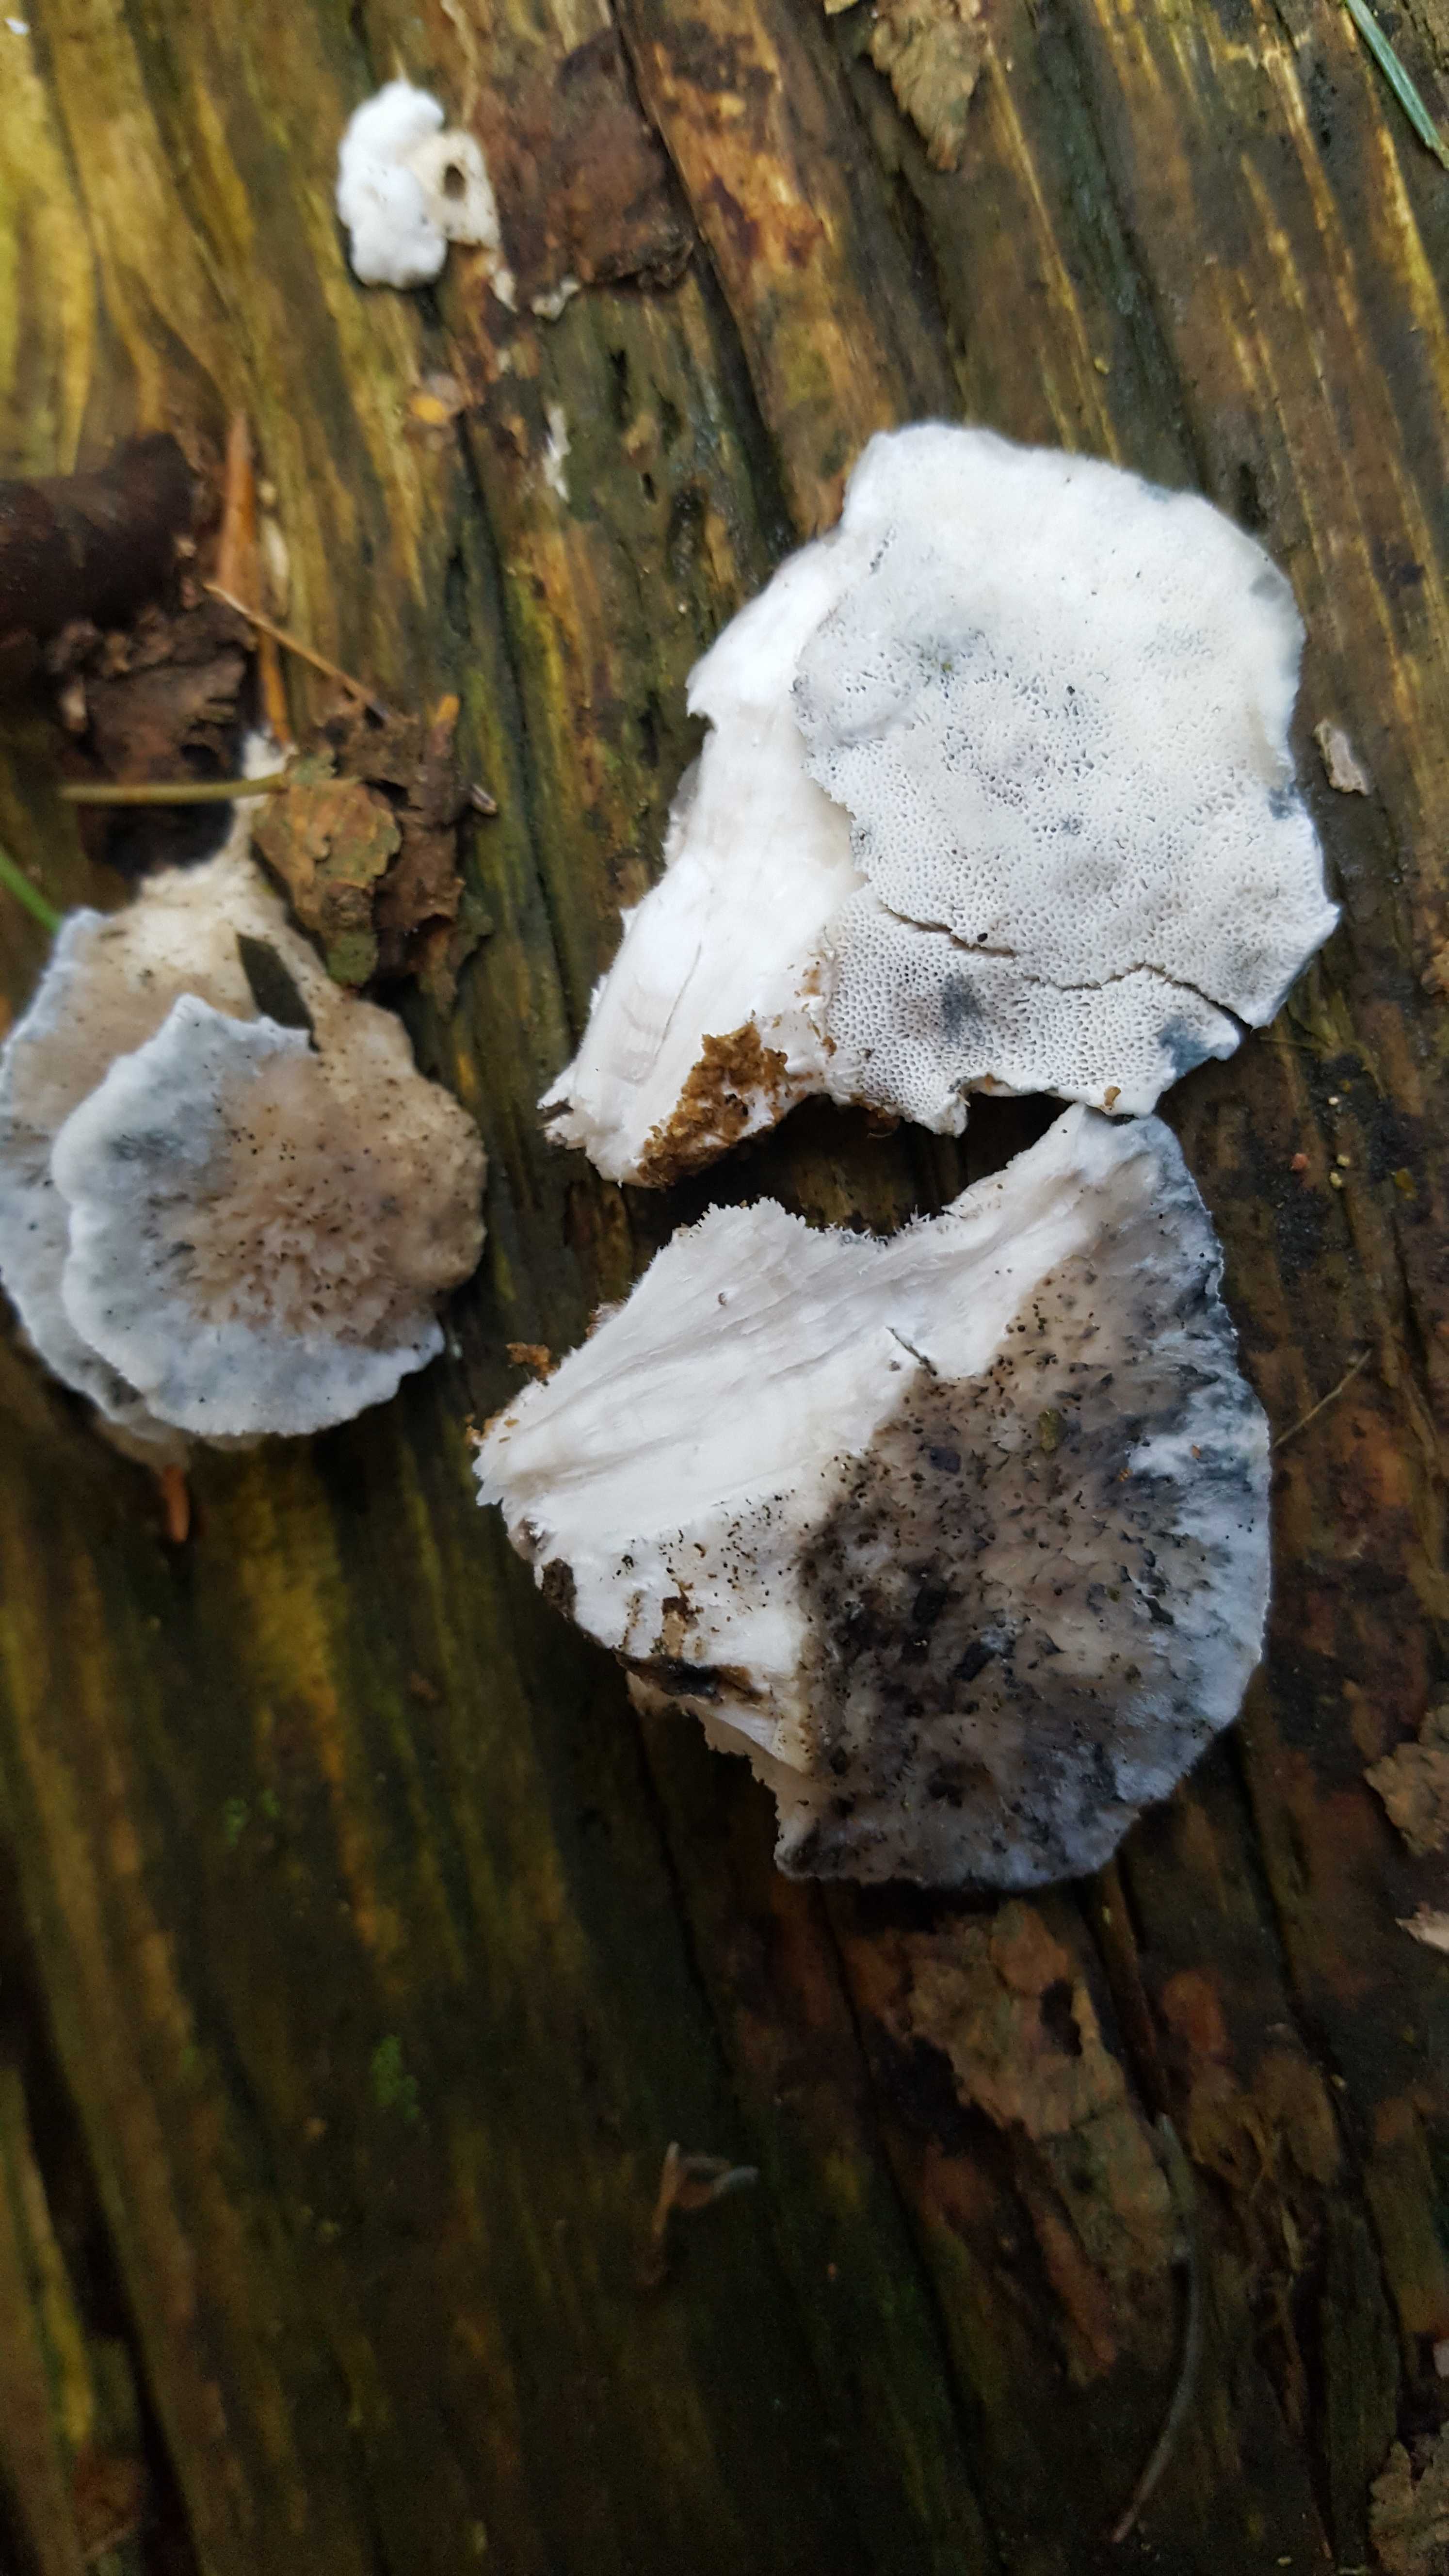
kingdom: Fungi
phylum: Basidiomycota
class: Agaricomycetes
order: Polyporales
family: Polyporaceae
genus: Cyanosporus
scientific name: Cyanosporus caesius
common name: blålig kødporesvamp
